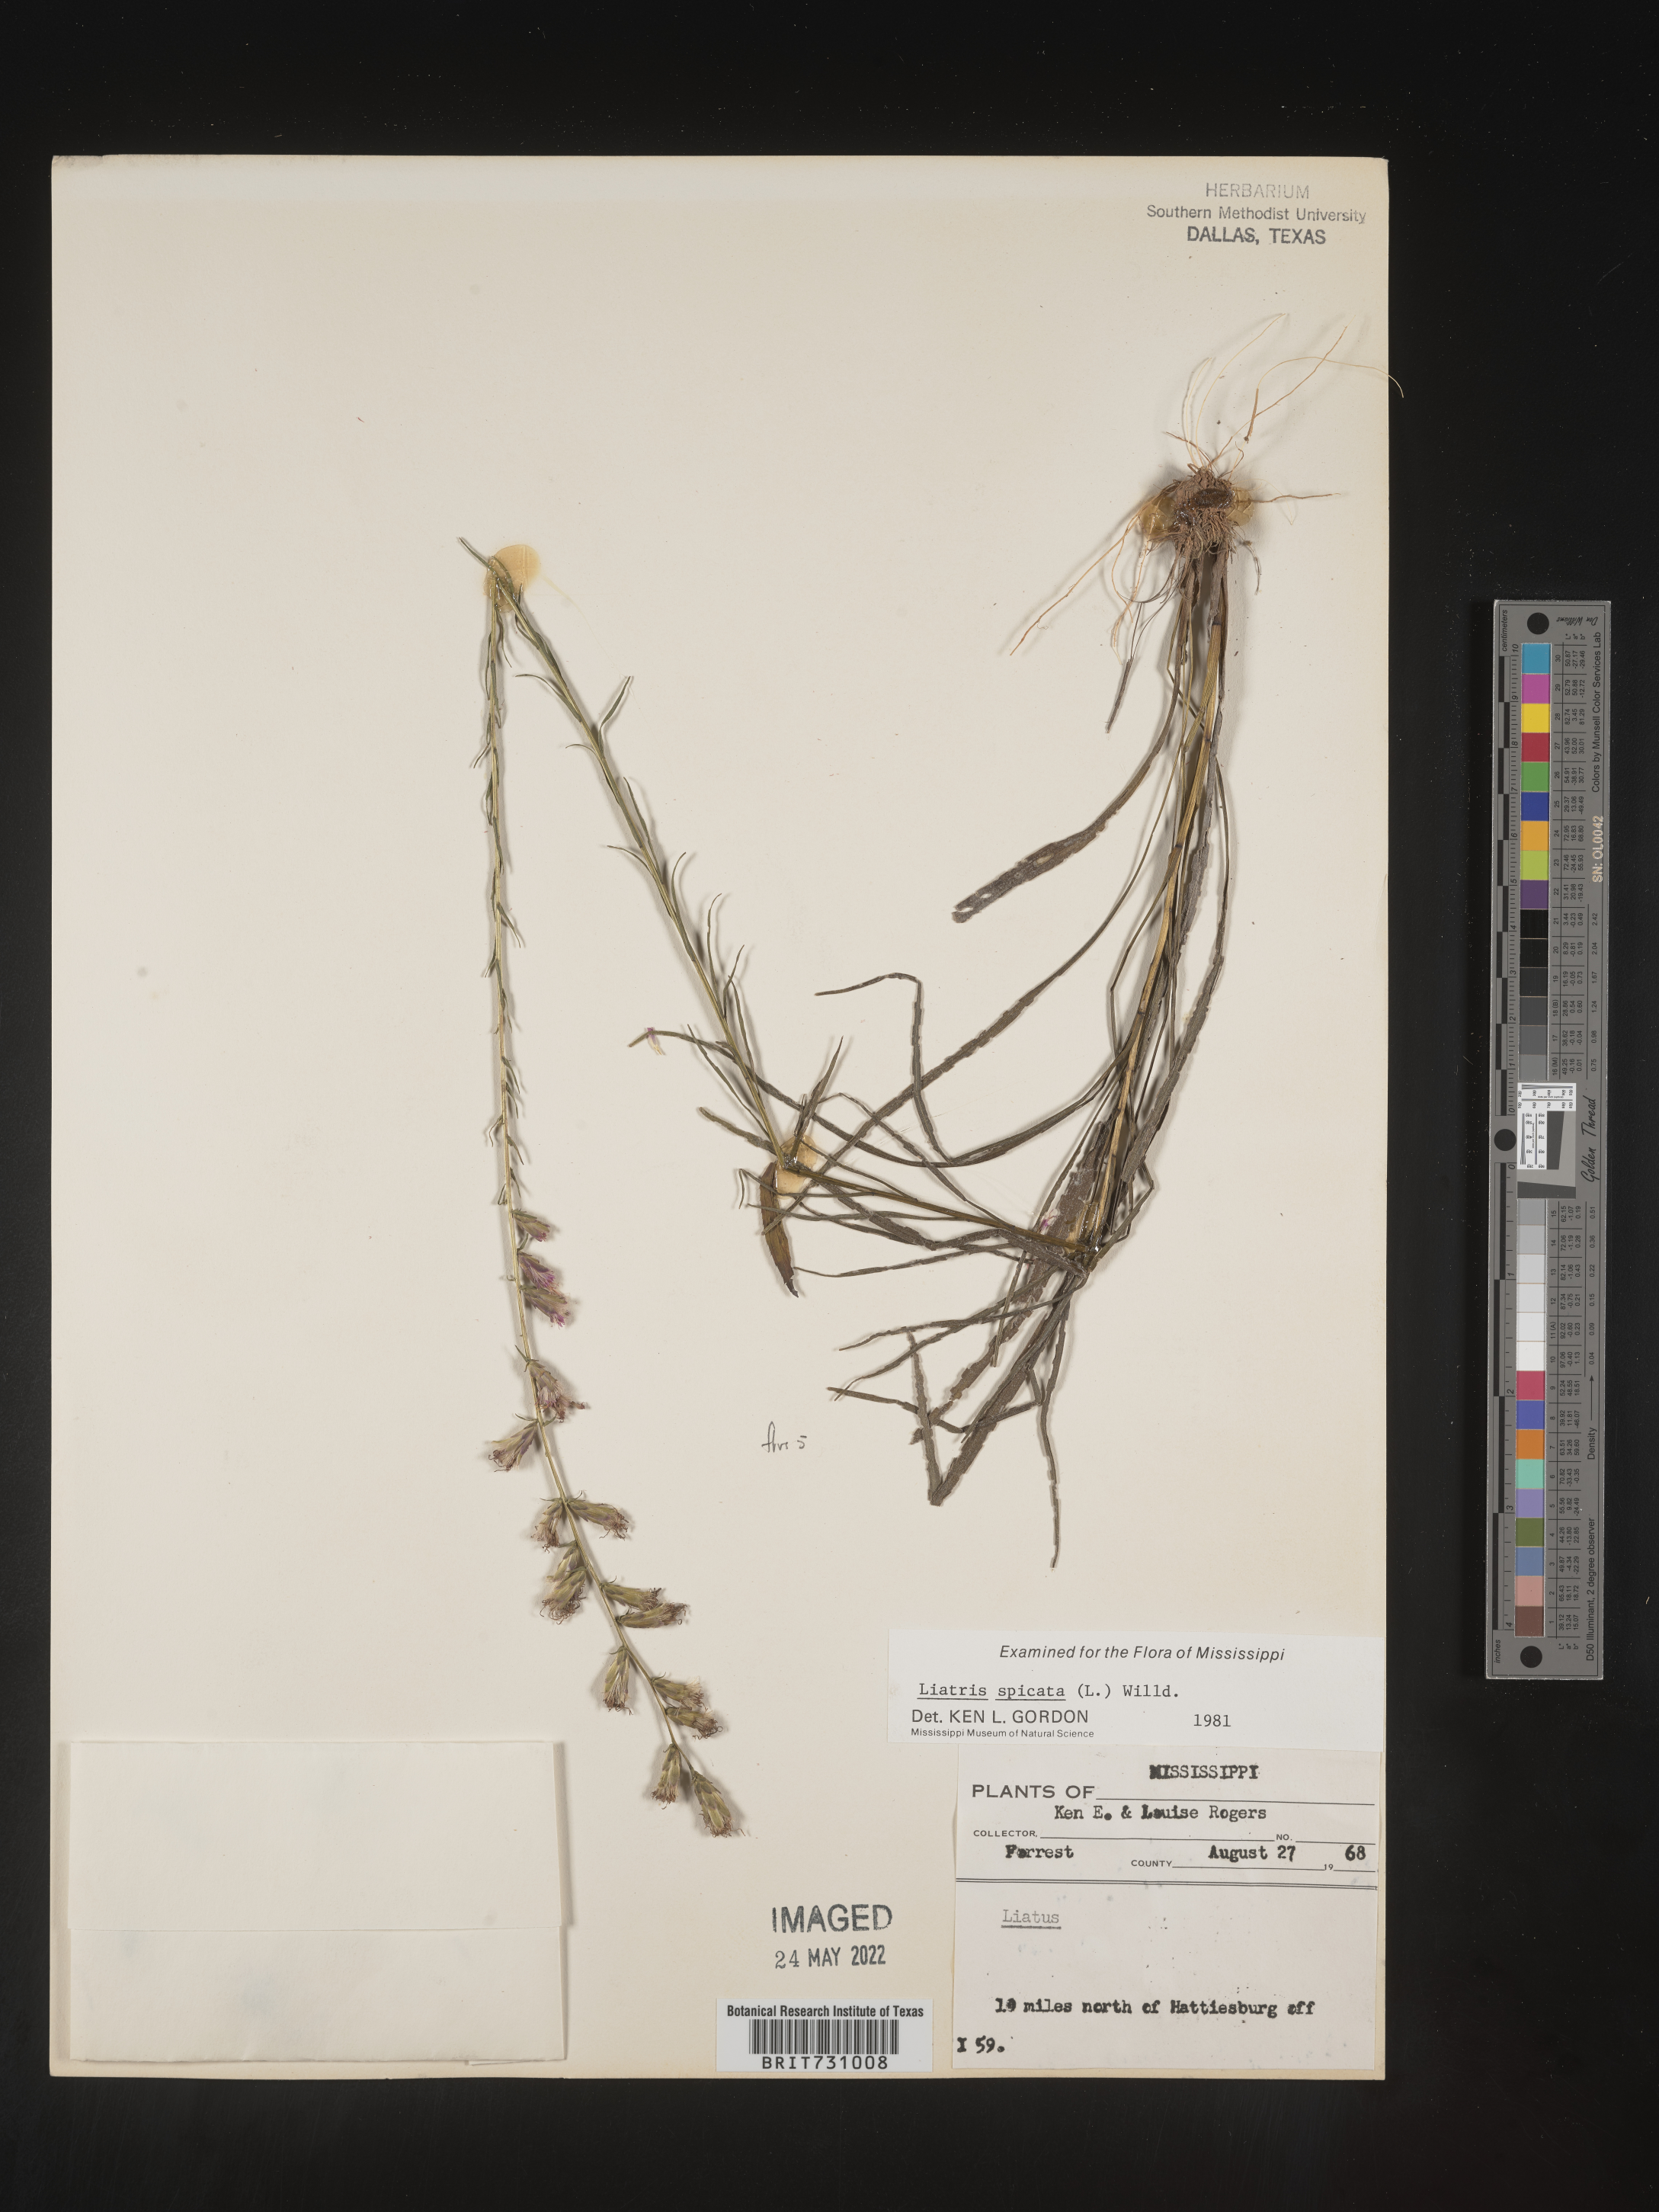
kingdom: Plantae
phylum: Tracheophyta
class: Magnoliopsida
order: Asterales
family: Asteraceae
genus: Liatris
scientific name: Liatris spicata
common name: Florist gayfeather
